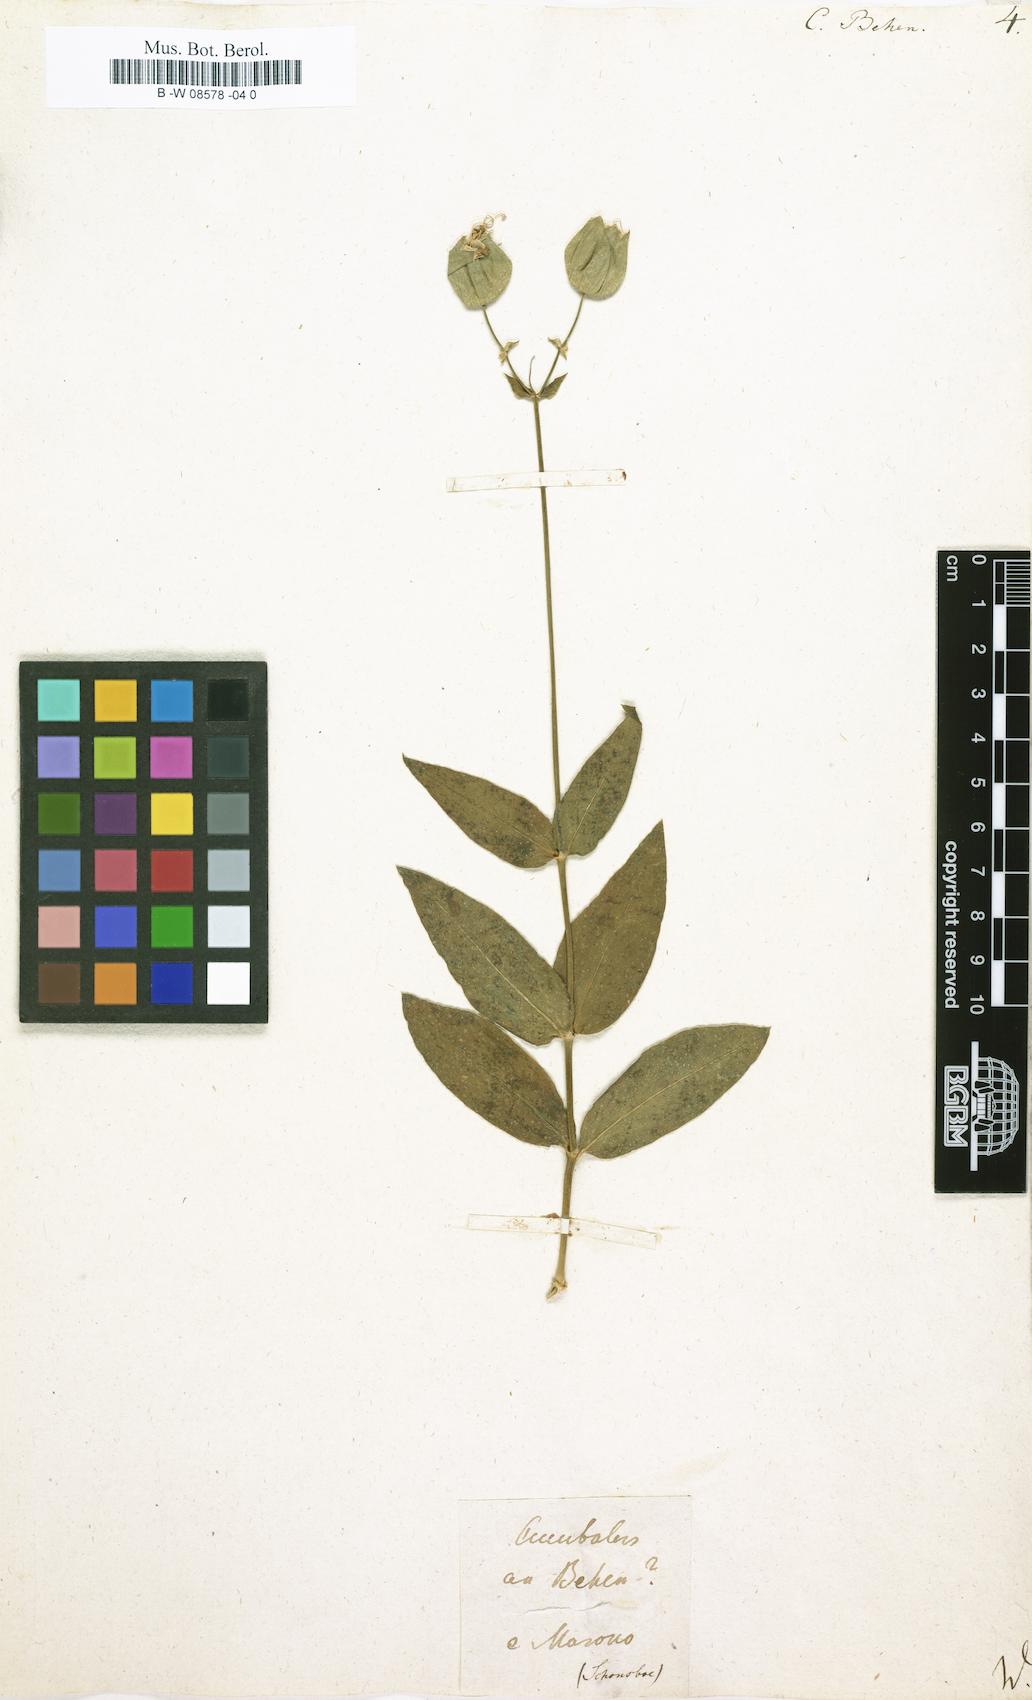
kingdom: Plantae
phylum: Tracheophyta
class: Magnoliopsida
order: Caryophyllales
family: Caryophyllaceae
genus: Silene
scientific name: Silene vulgaris
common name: Bladder campion
